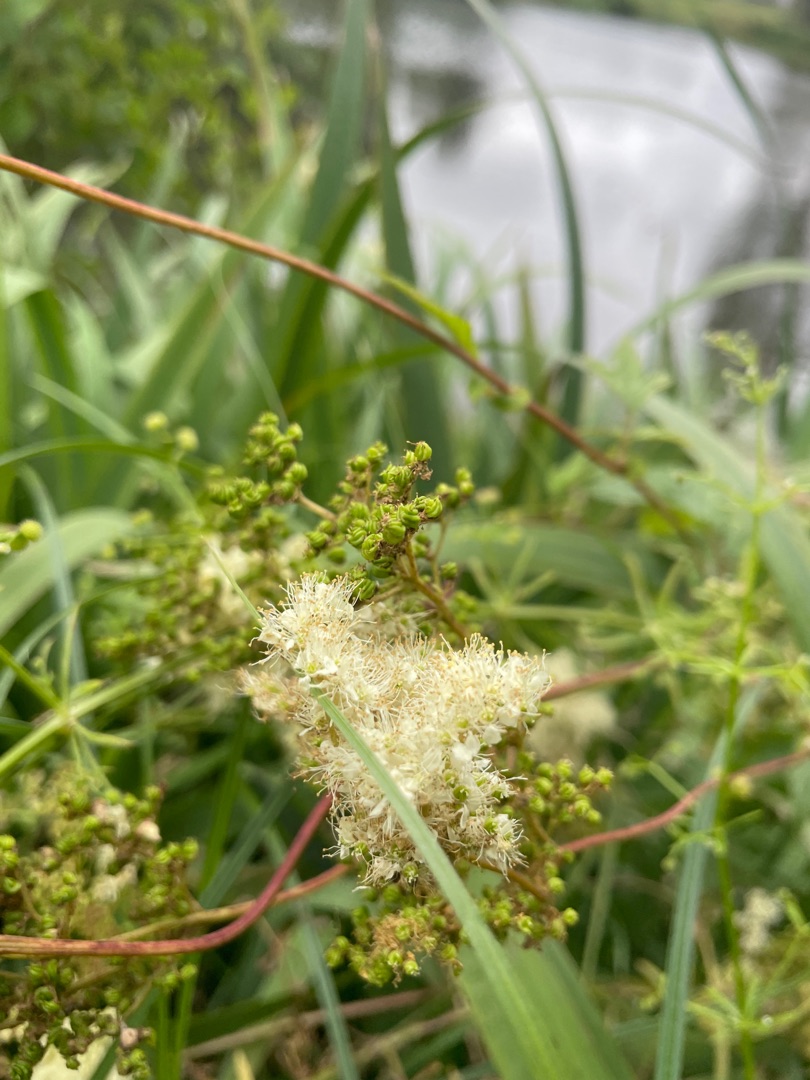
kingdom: Plantae
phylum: Tracheophyta
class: Magnoliopsida
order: Rosales
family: Rosaceae
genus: Filipendula
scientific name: Filipendula ulmaria
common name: Almindelig mjødurt
